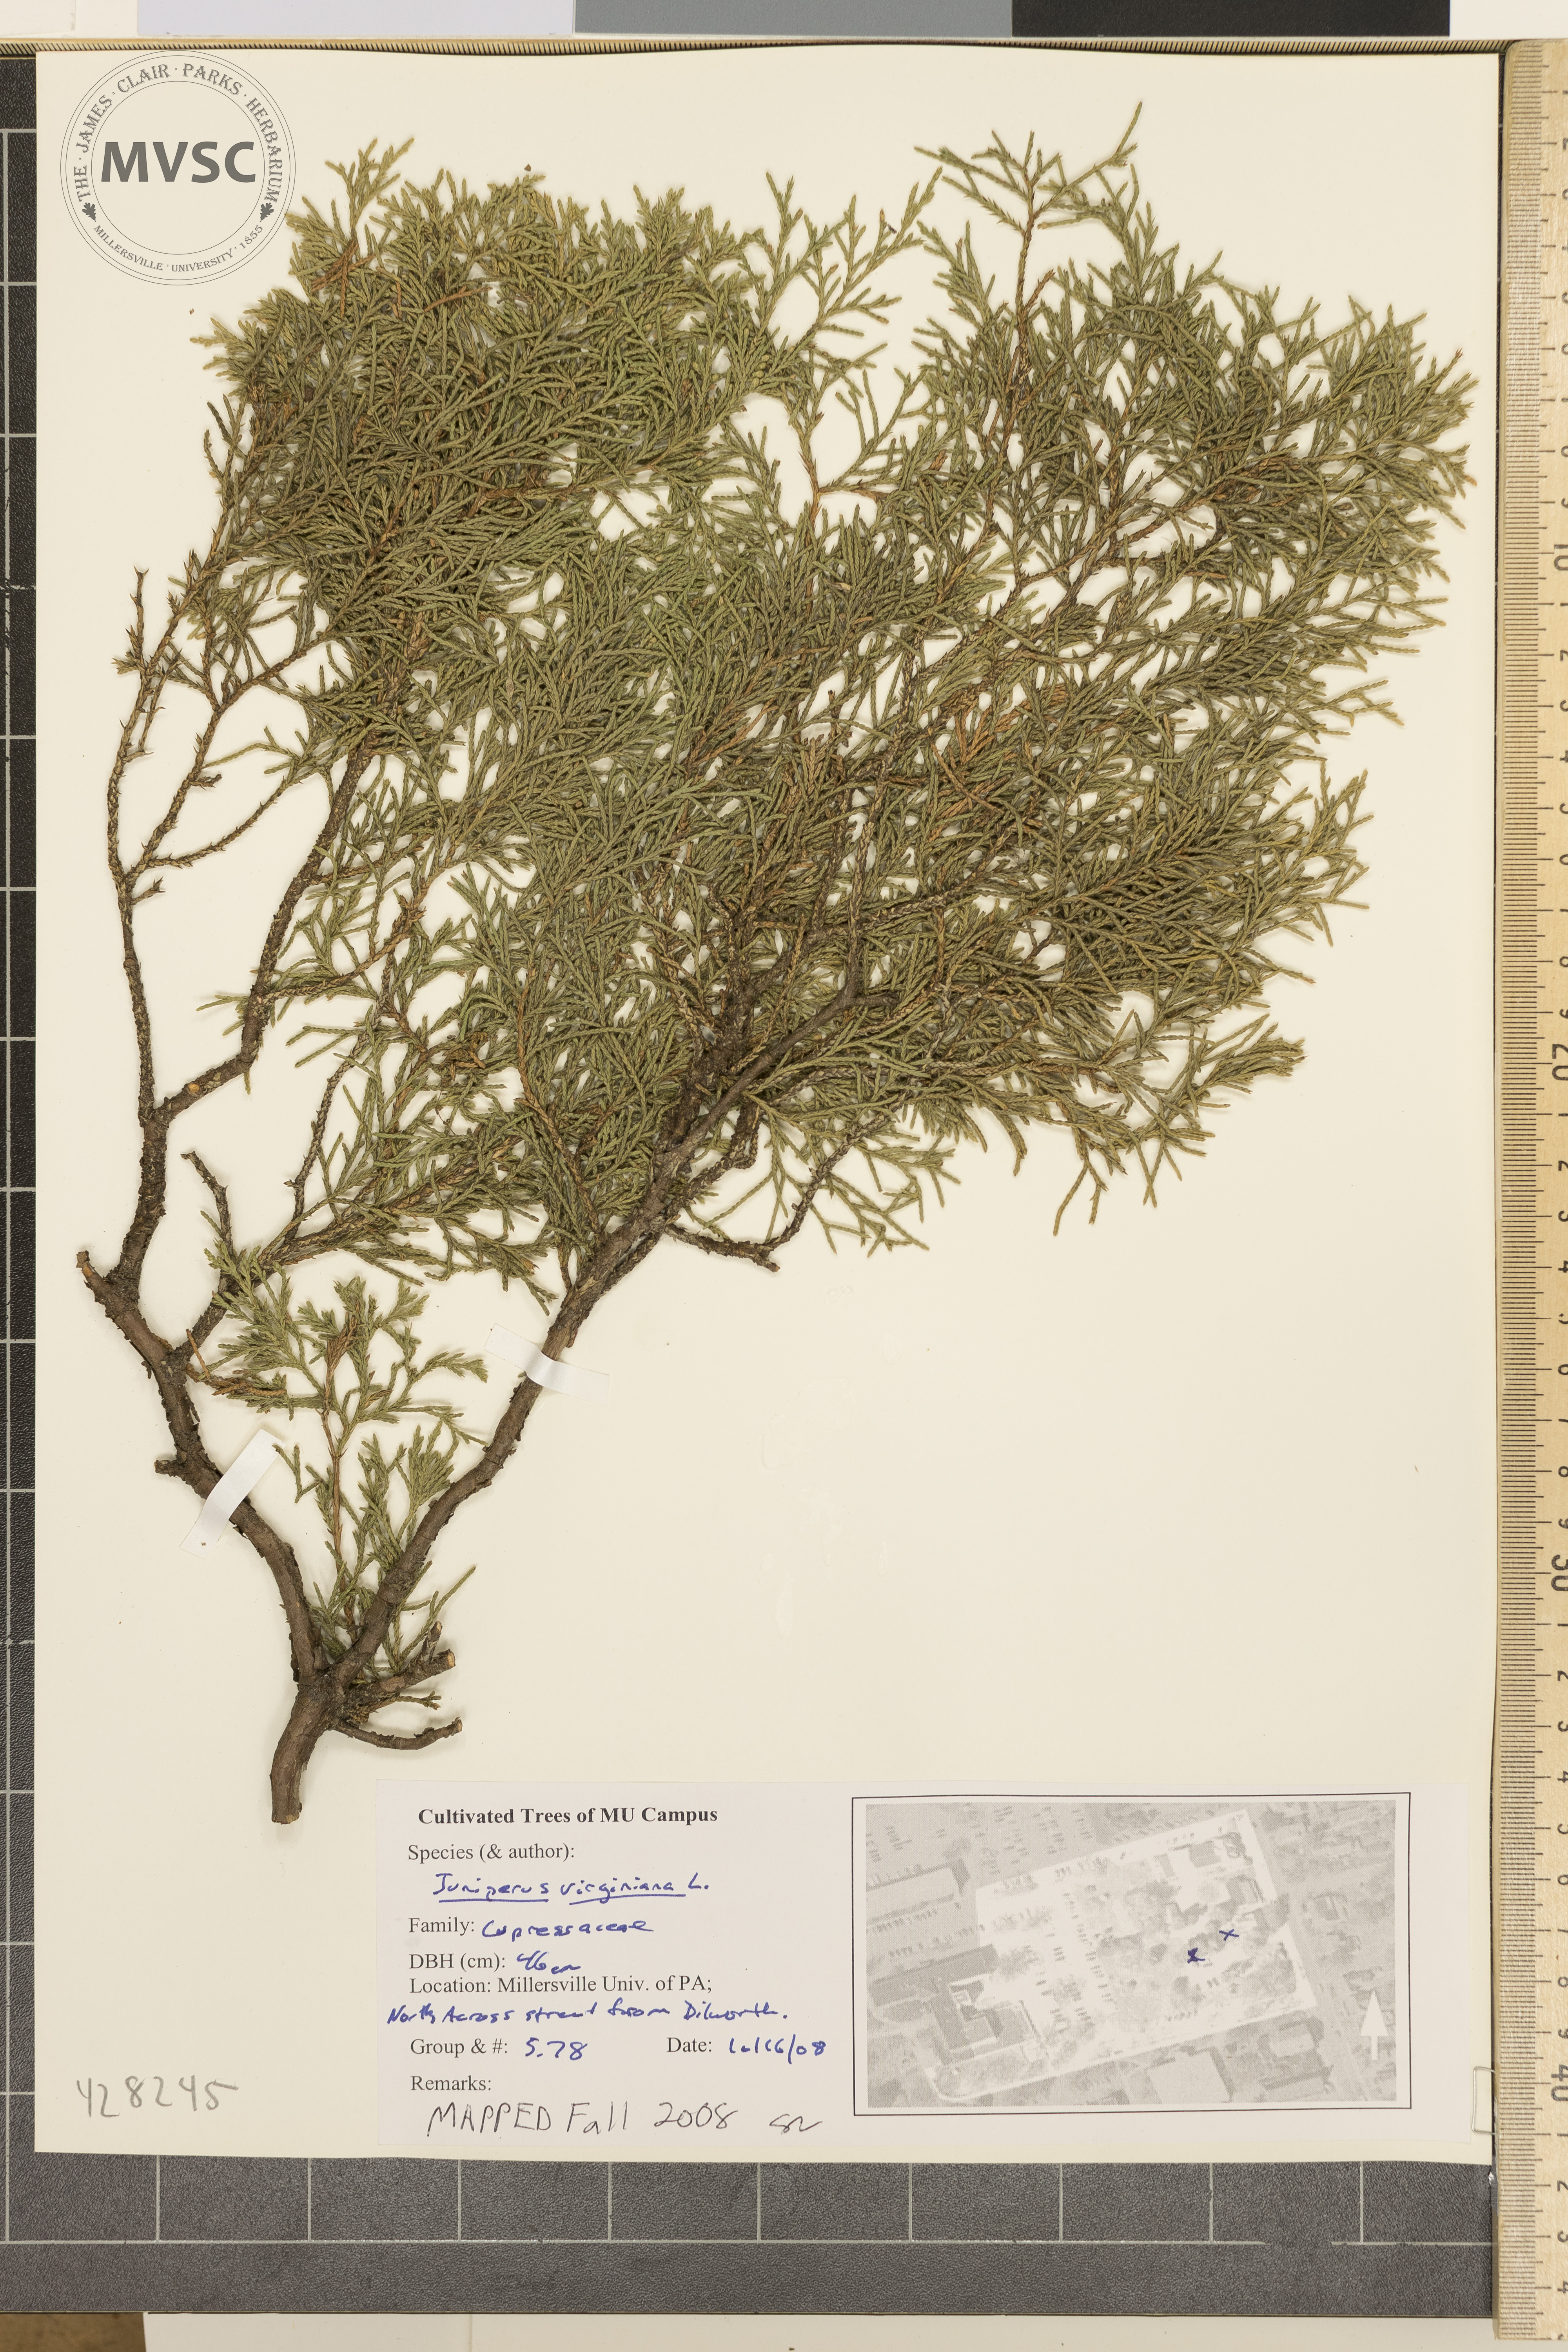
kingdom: Plantae
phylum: Tracheophyta
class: Pinopsida
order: Pinales
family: Cupressaceae
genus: Juniperus
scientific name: Juniperus virginiana
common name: Eastern red-cedar
